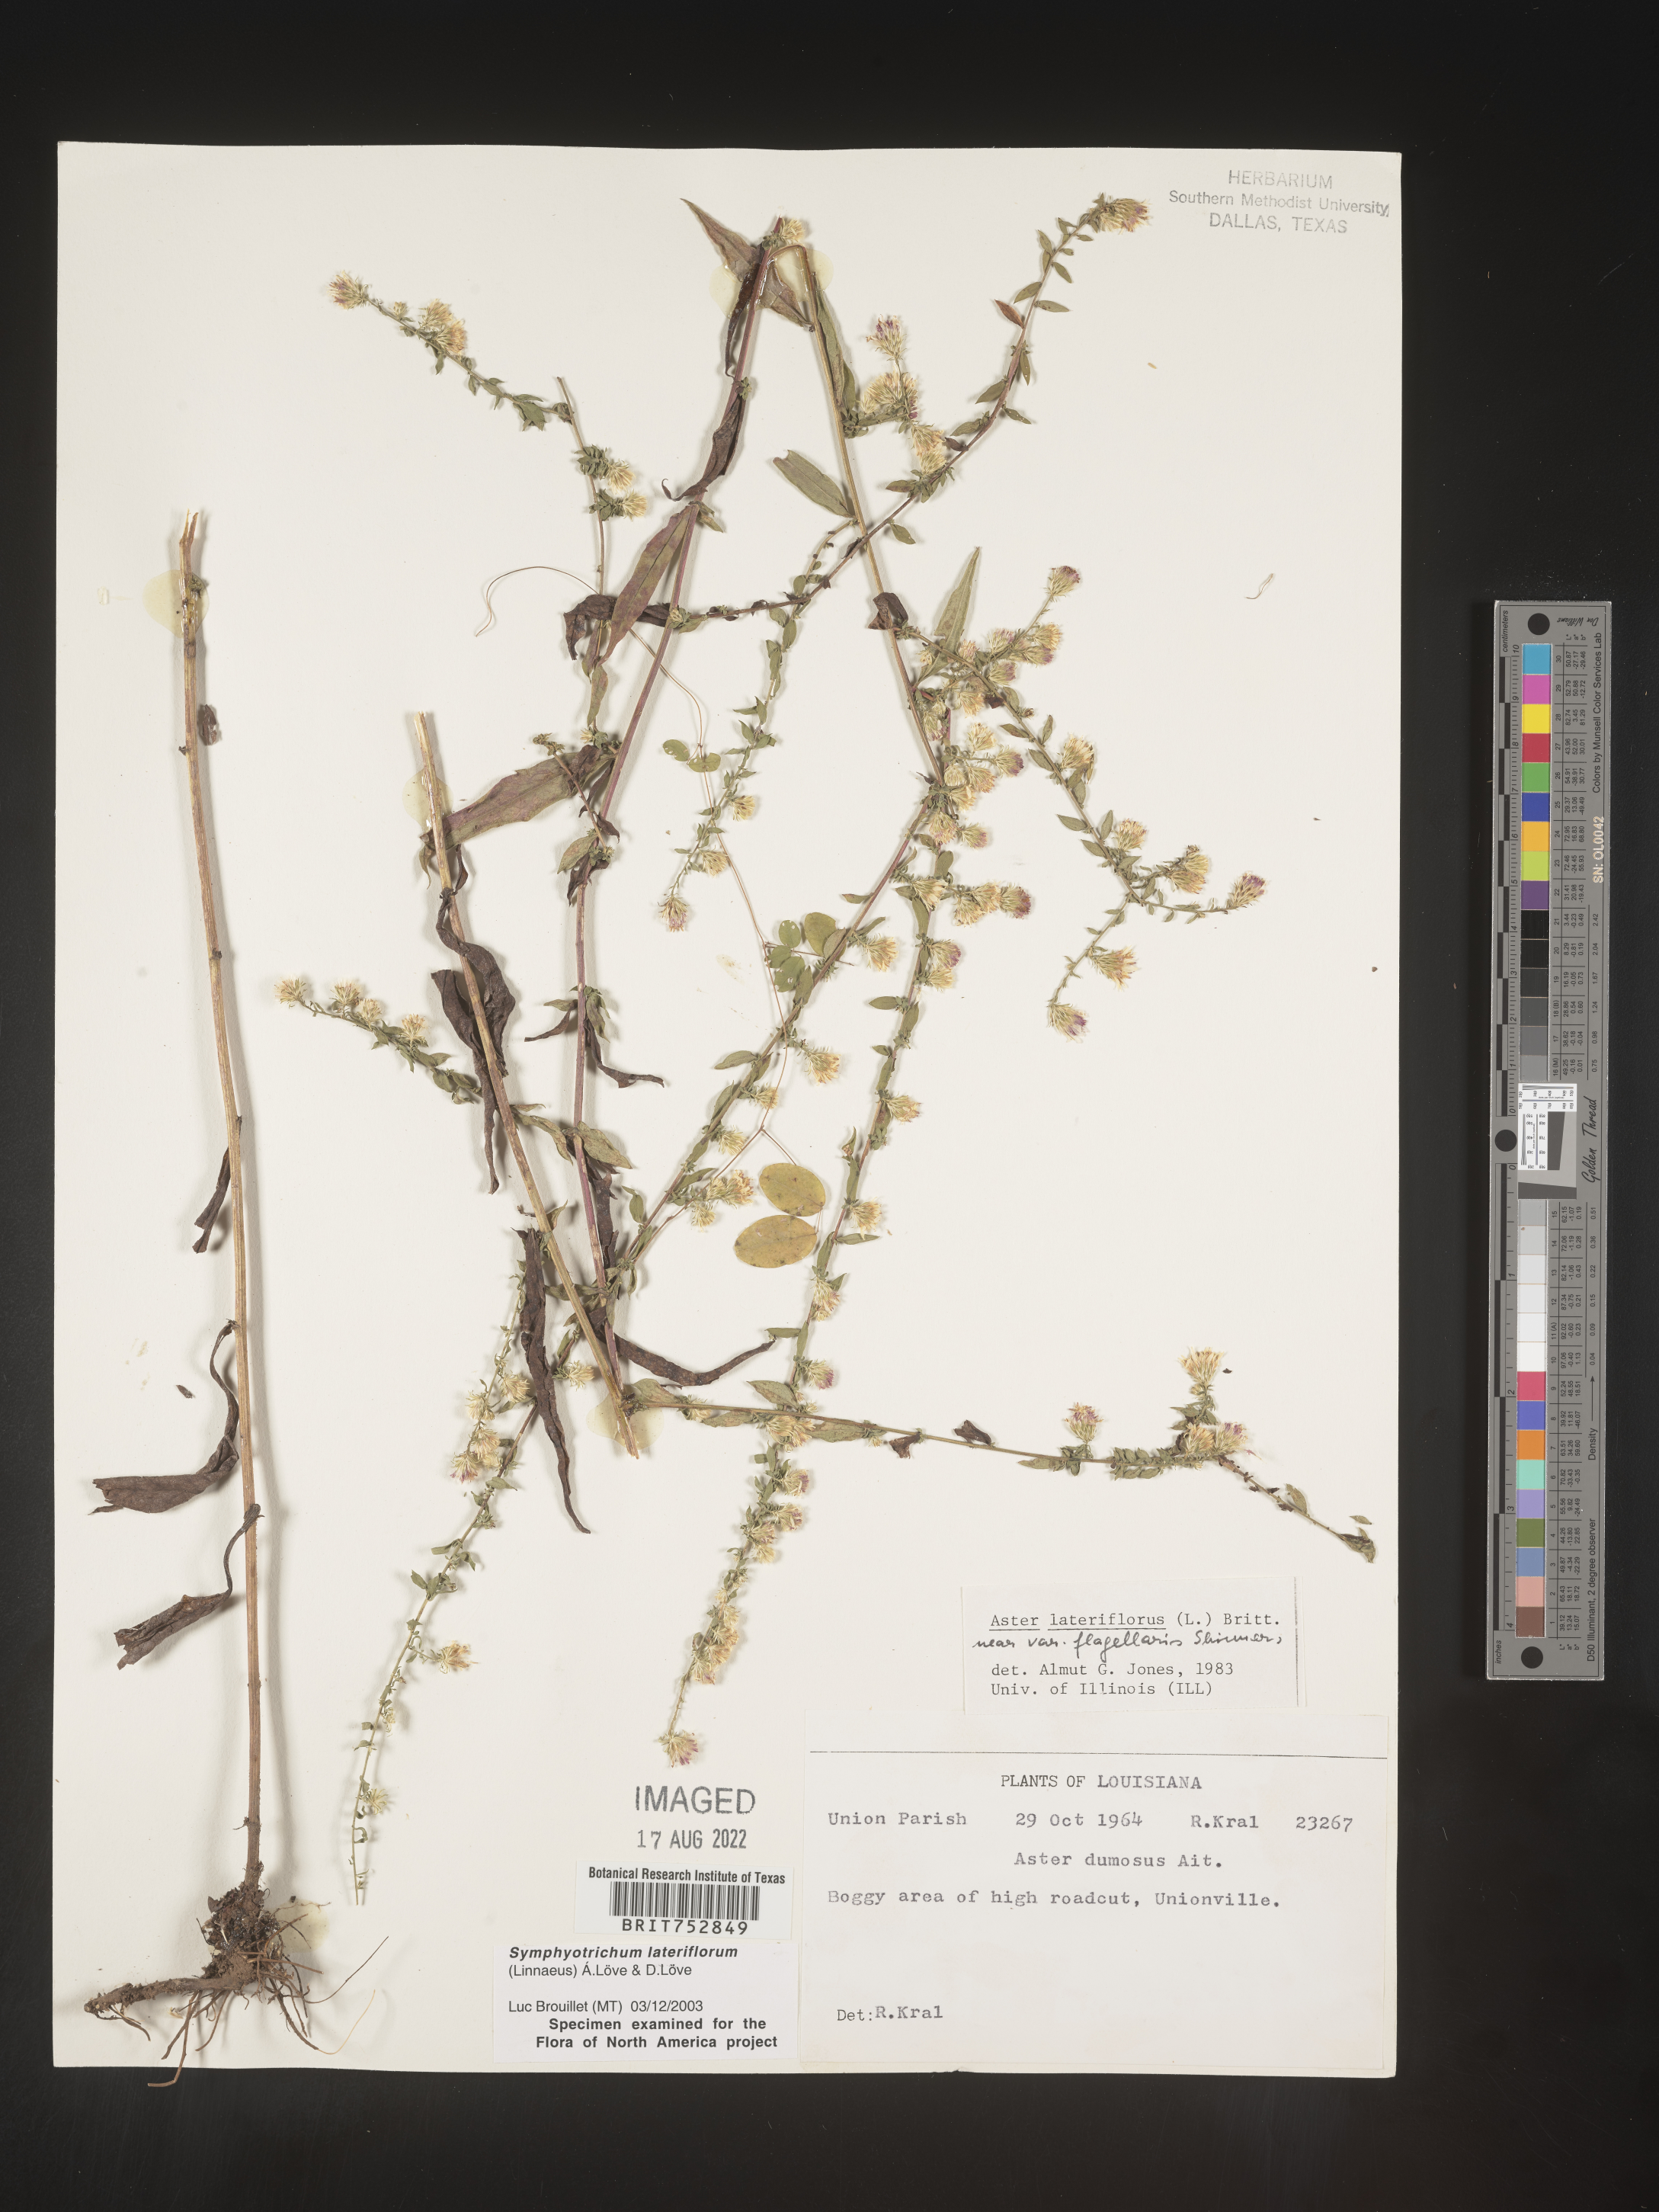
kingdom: Plantae
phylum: Tracheophyta
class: Magnoliopsida
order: Asterales
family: Asteraceae
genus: Symphyotrichum
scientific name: Symphyotrichum lateriflorum
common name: Calico aster
